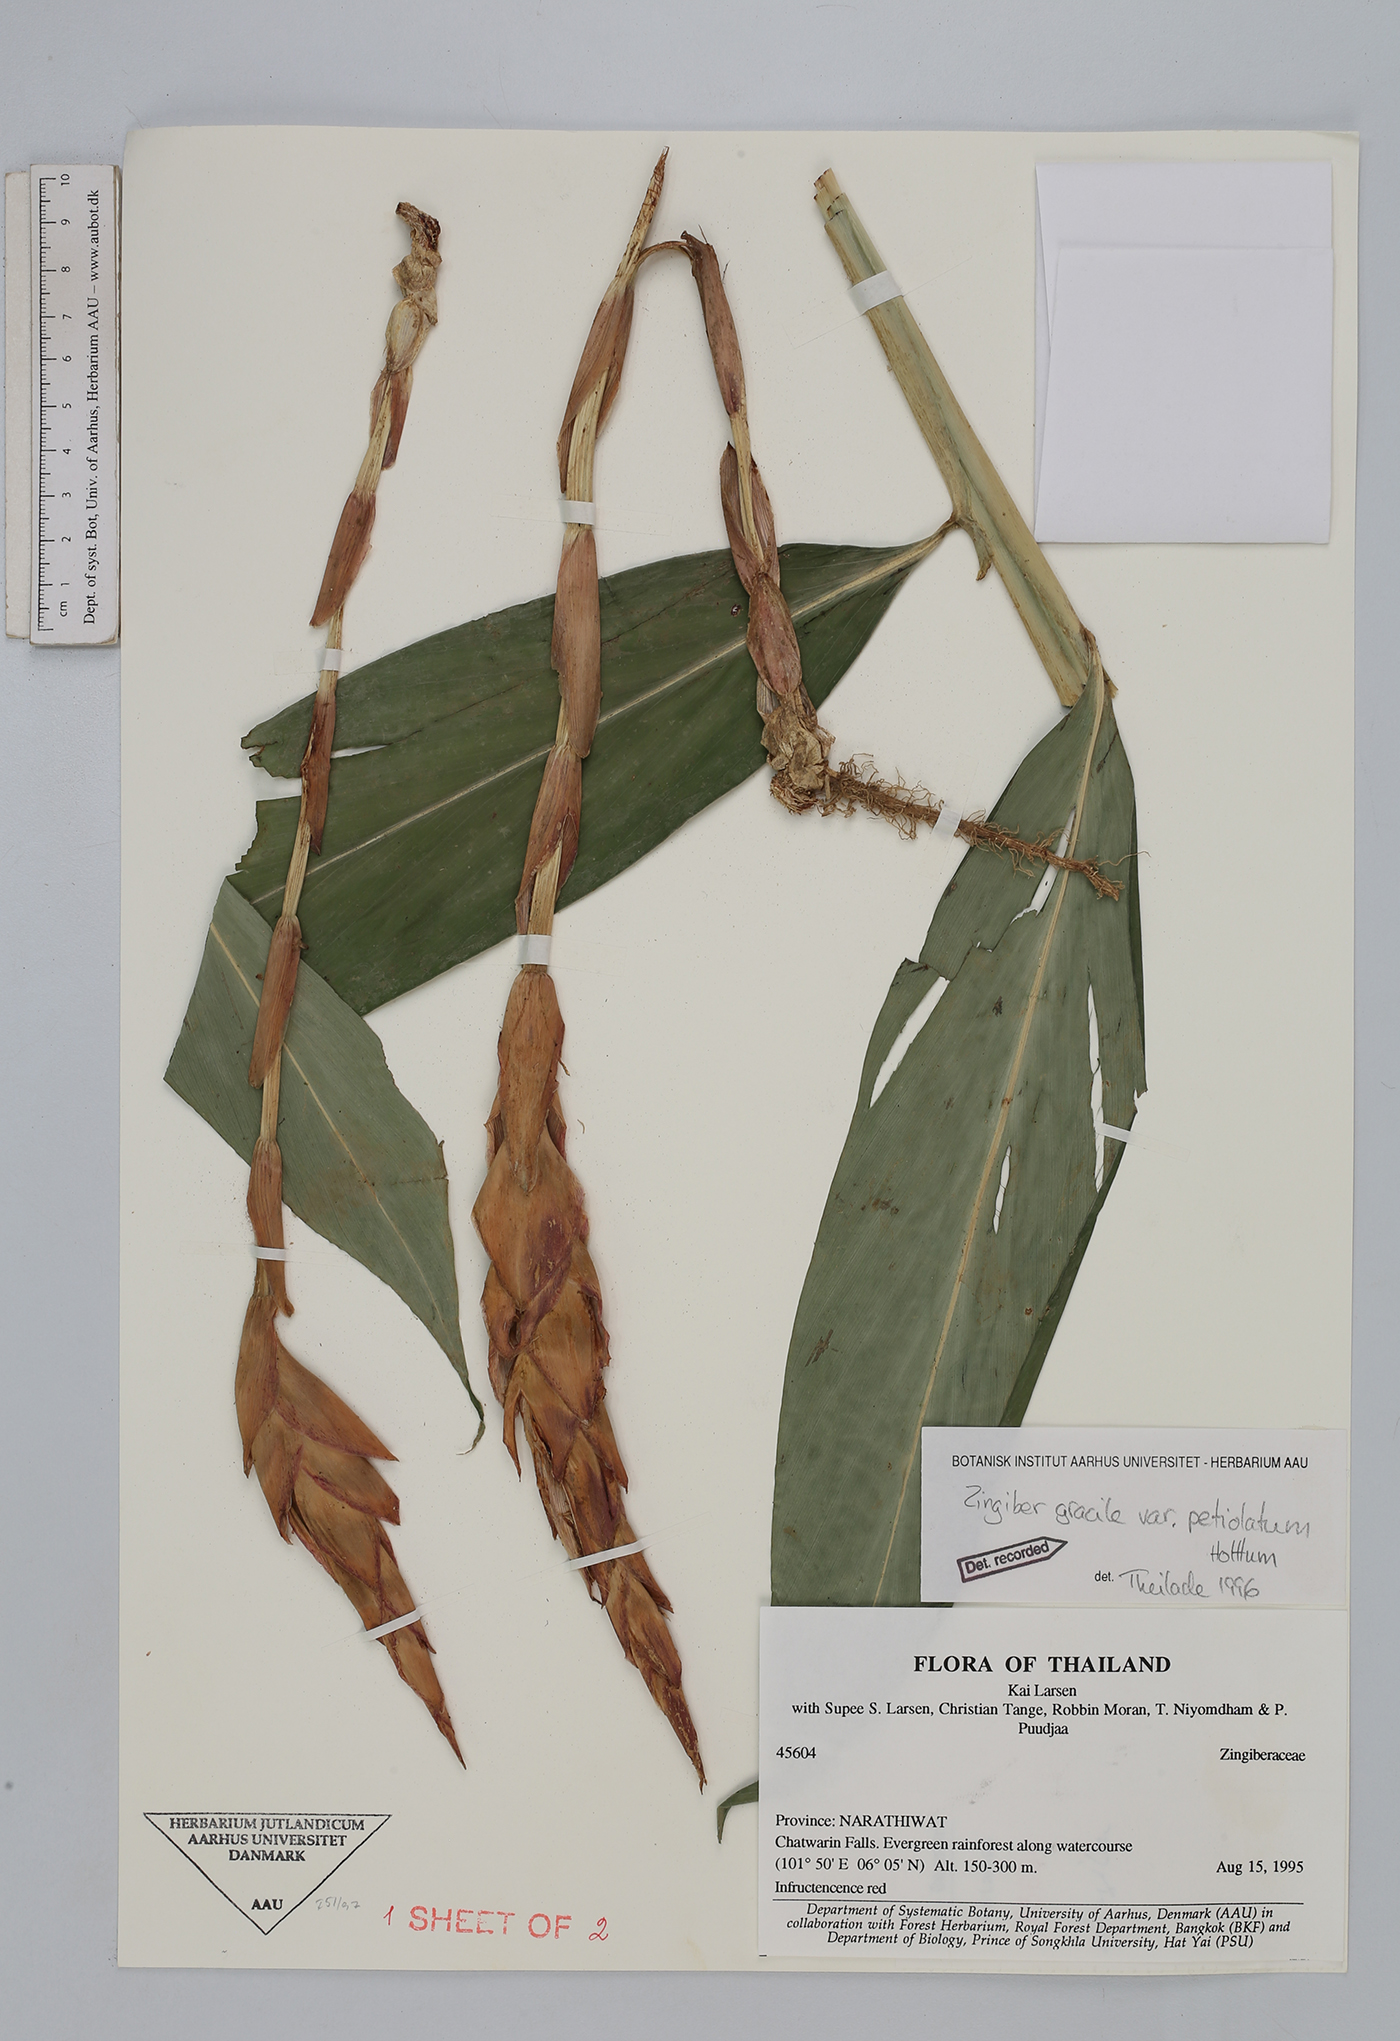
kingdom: Plantae
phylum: Tracheophyta
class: Liliopsida
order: Zingiberales
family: Zingiberaceae
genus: Zingiber
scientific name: Zingiber petiolatum
